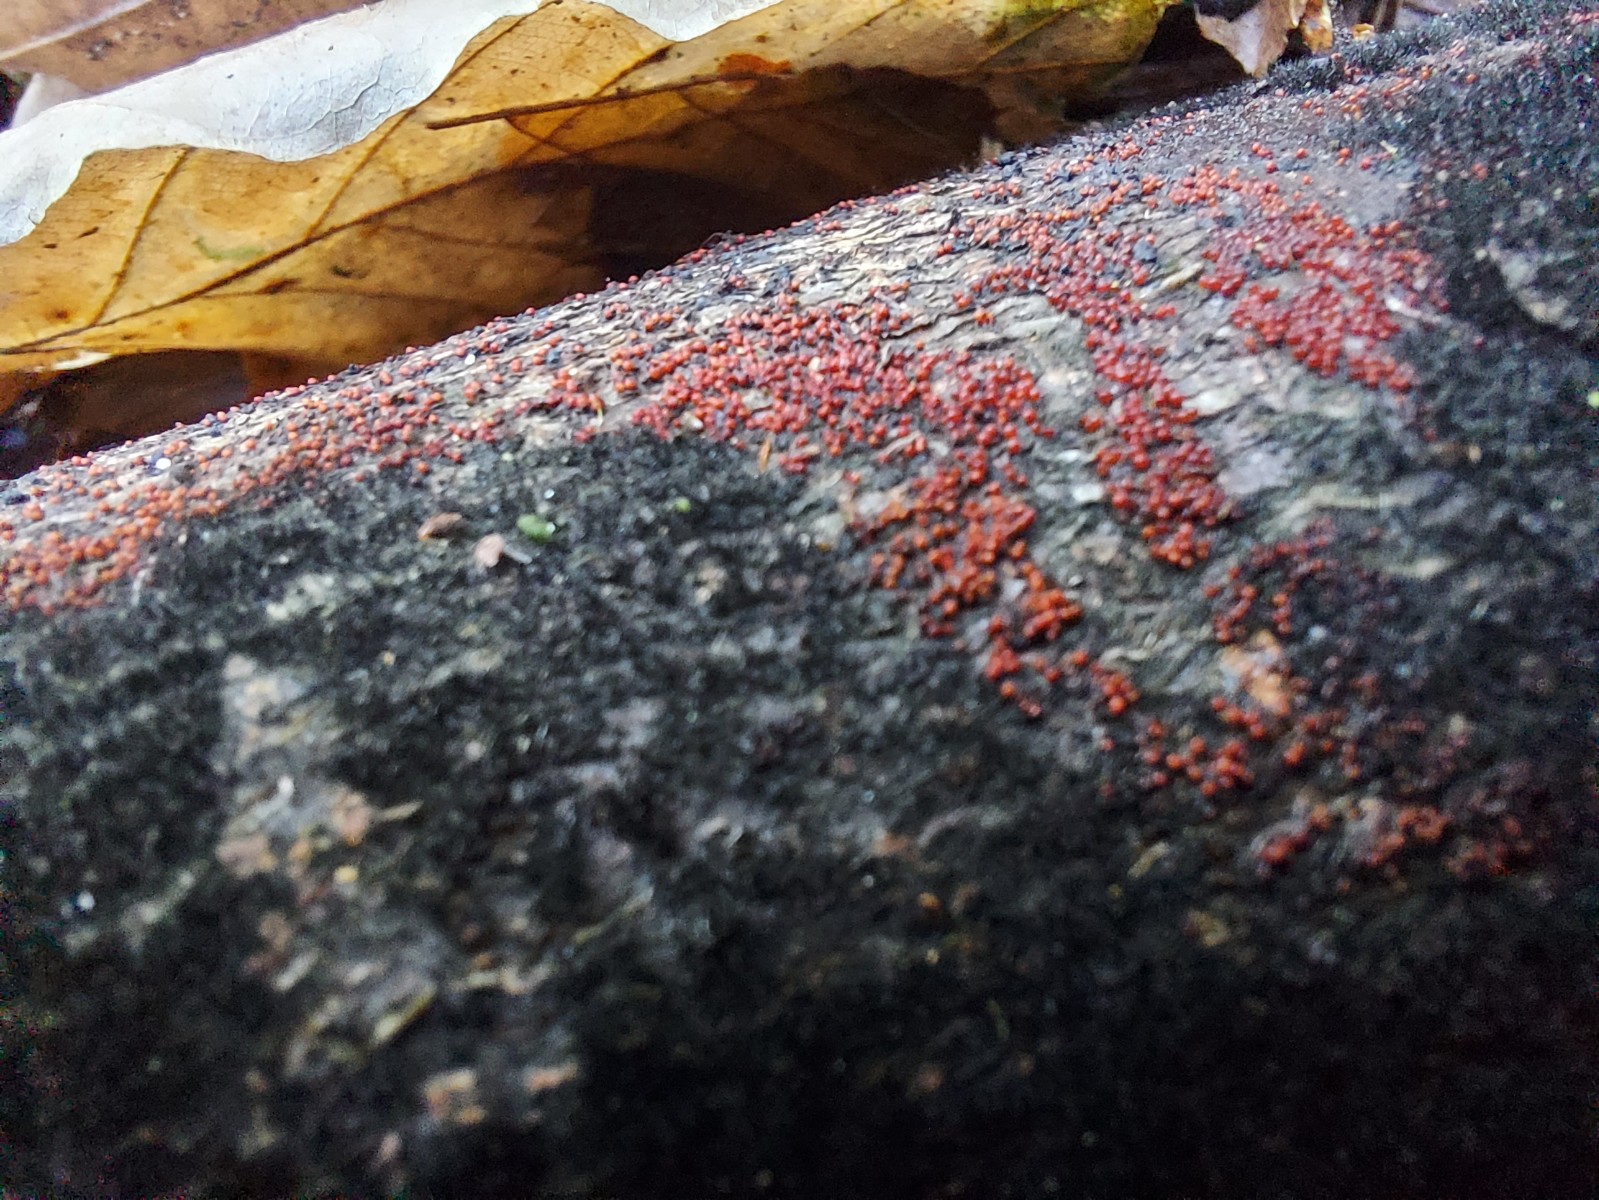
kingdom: Fungi
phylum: Ascomycota
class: Sordariomycetes
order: Hypocreales
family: Nectriaceae
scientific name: Nectriaceae
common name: cinnobersvampfamilien
